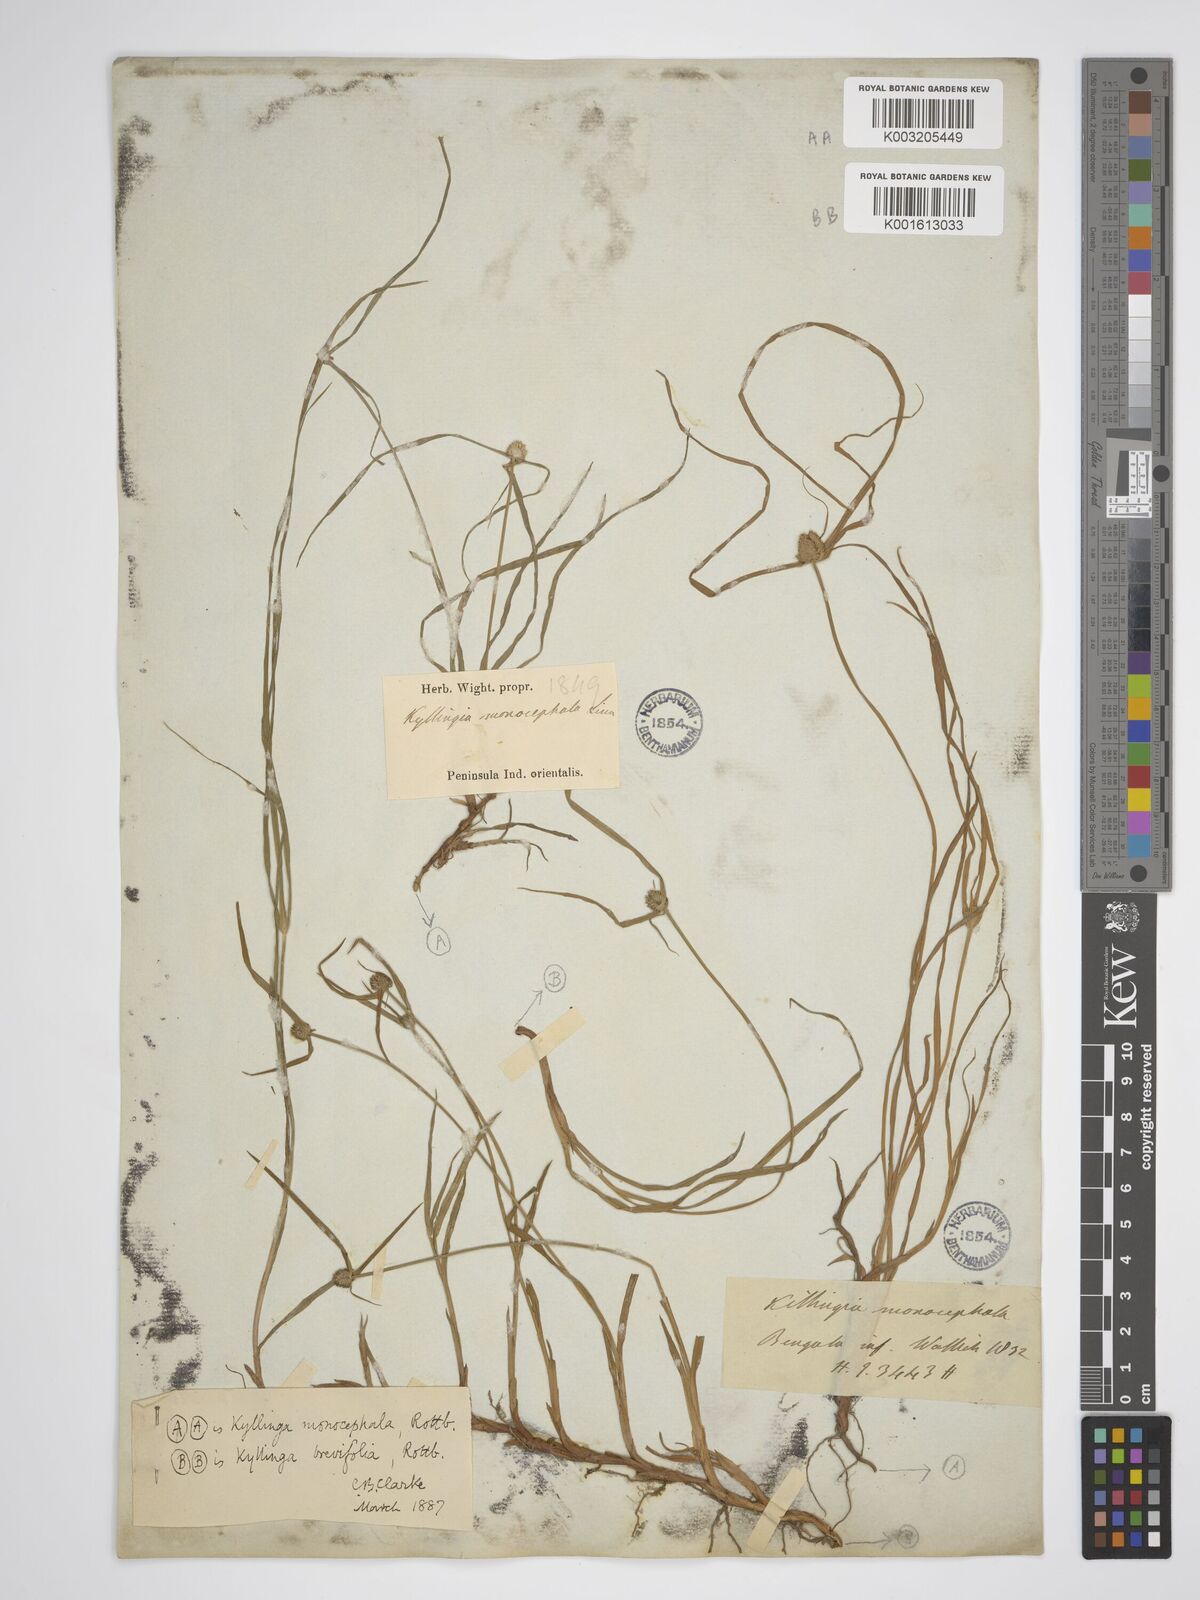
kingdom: Plantae
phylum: Tracheophyta
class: Liliopsida
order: Poales
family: Cyperaceae
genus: Rhynchospora
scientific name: Rhynchospora colorata
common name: Star sedge
